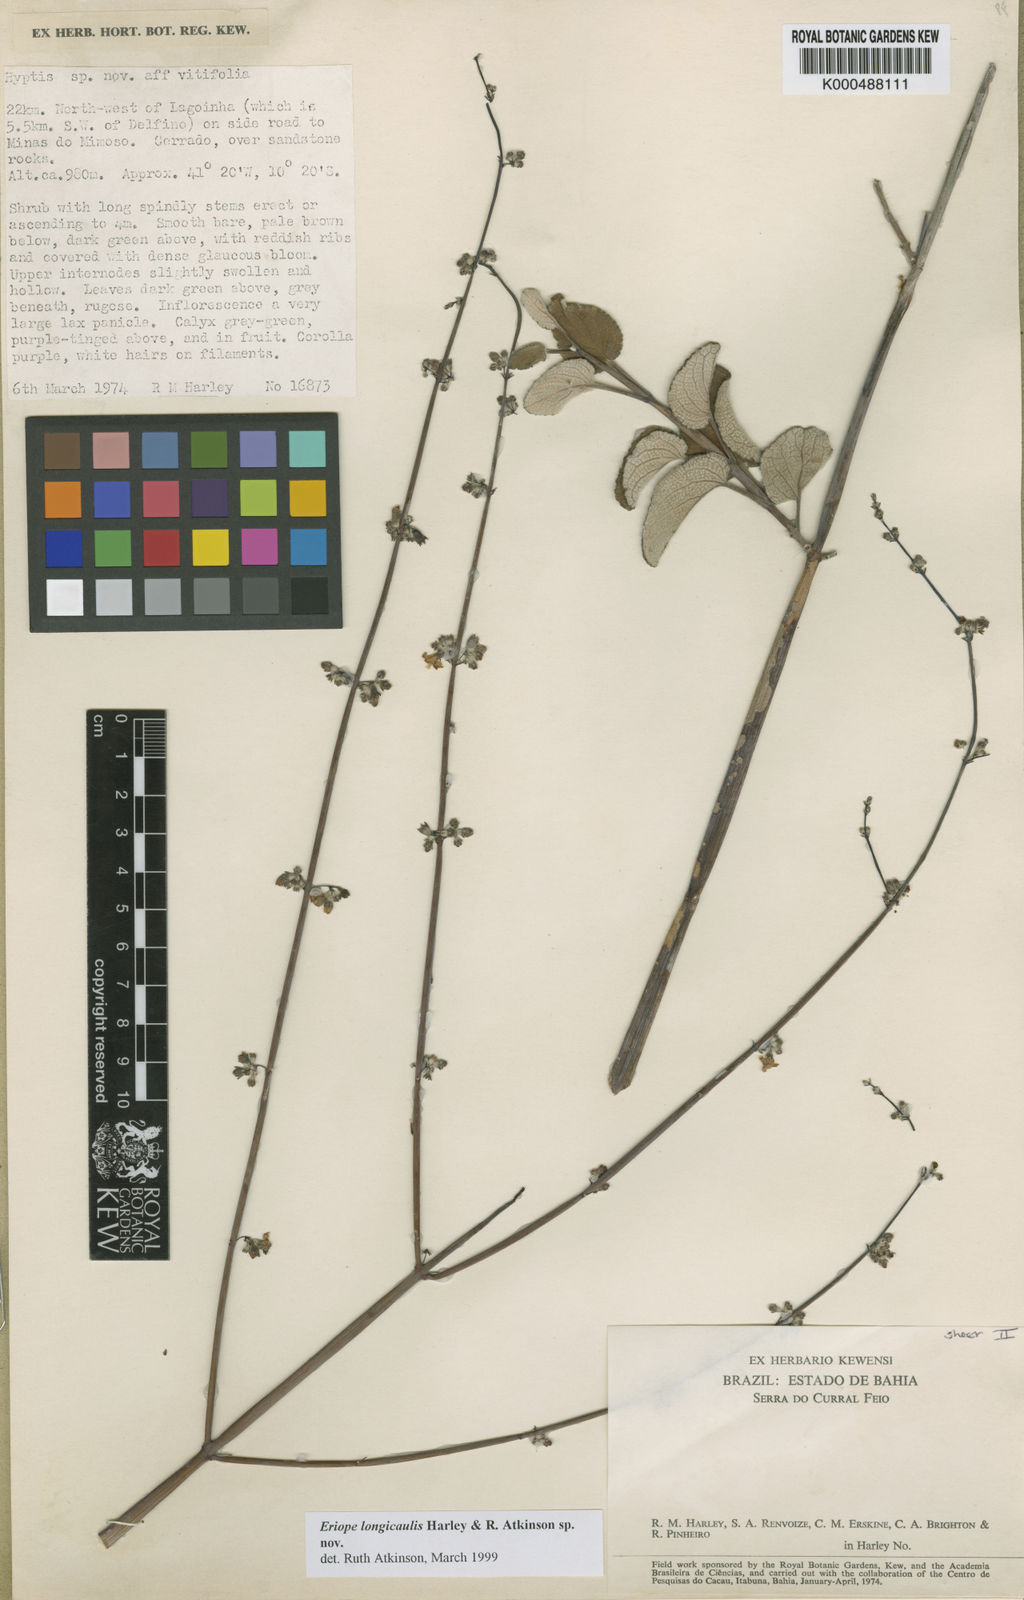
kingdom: Plantae
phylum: Tracheophyta
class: Magnoliopsida
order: Lamiales
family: Lamiaceae
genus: Hypenia
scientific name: Hypenia
